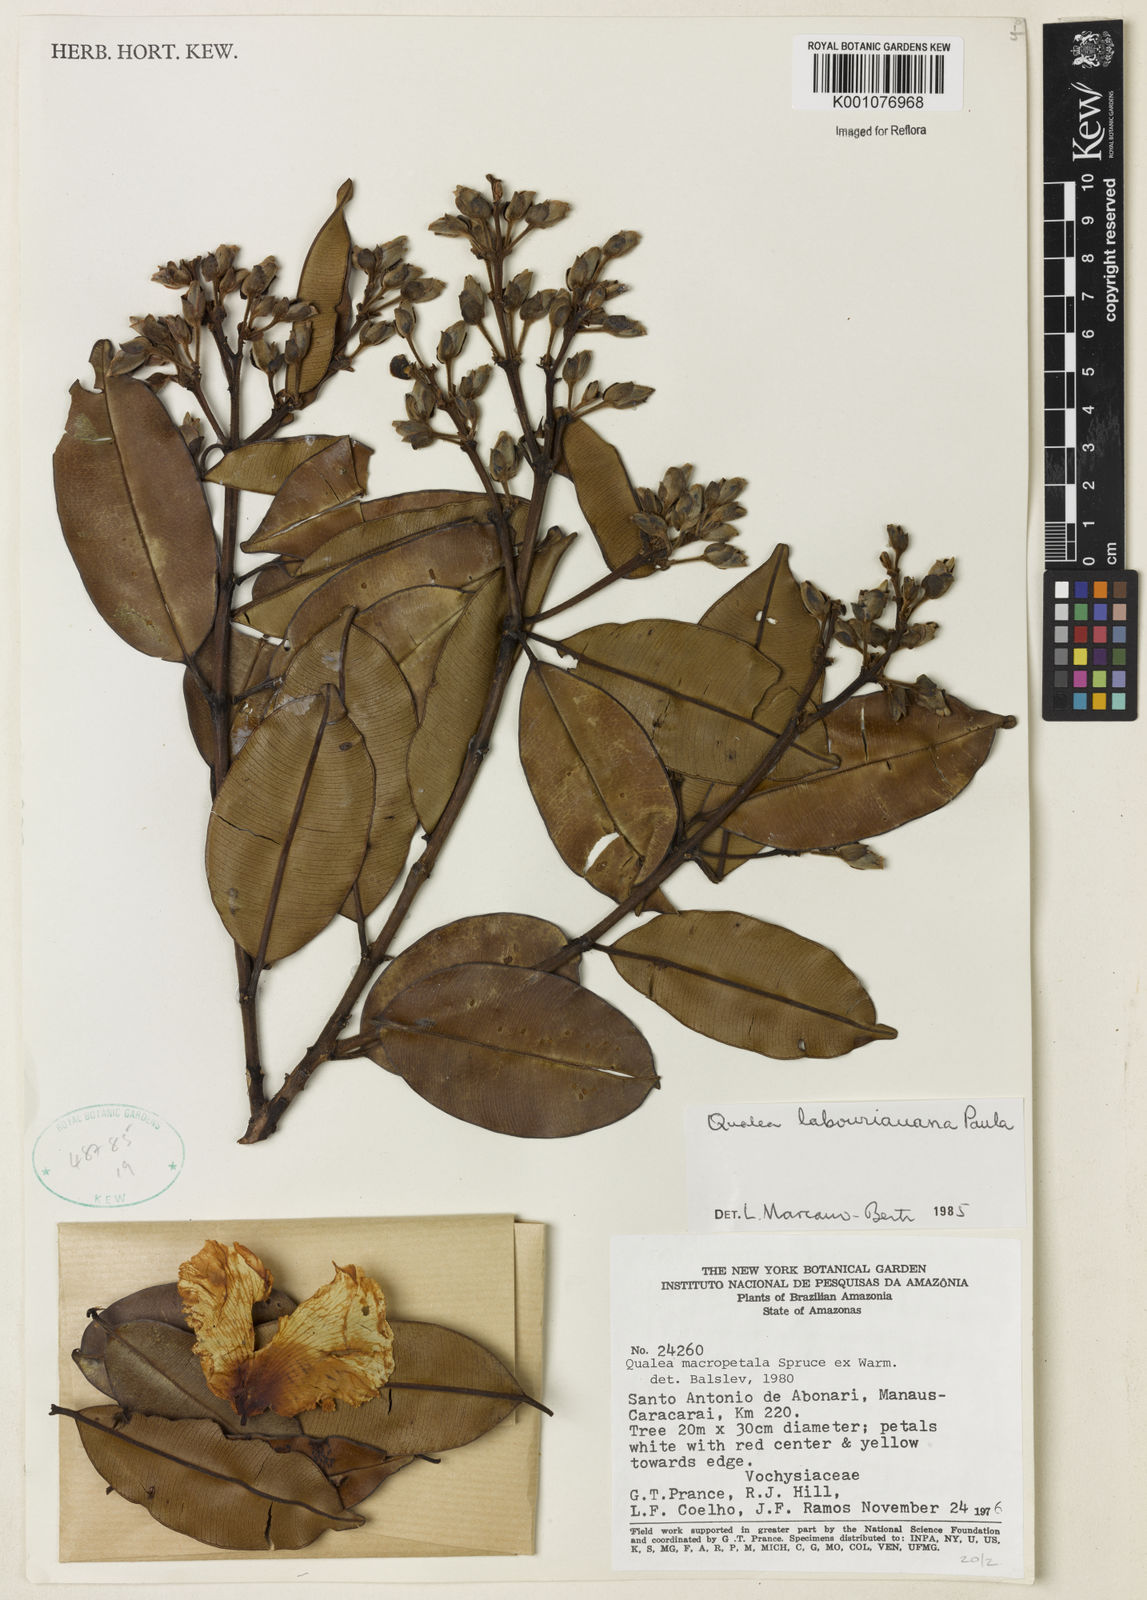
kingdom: Plantae
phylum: Tracheophyta
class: Magnoliopsida
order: Myrtales
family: Vochysiaceae
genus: Qualea
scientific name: Qualea labouriauana
